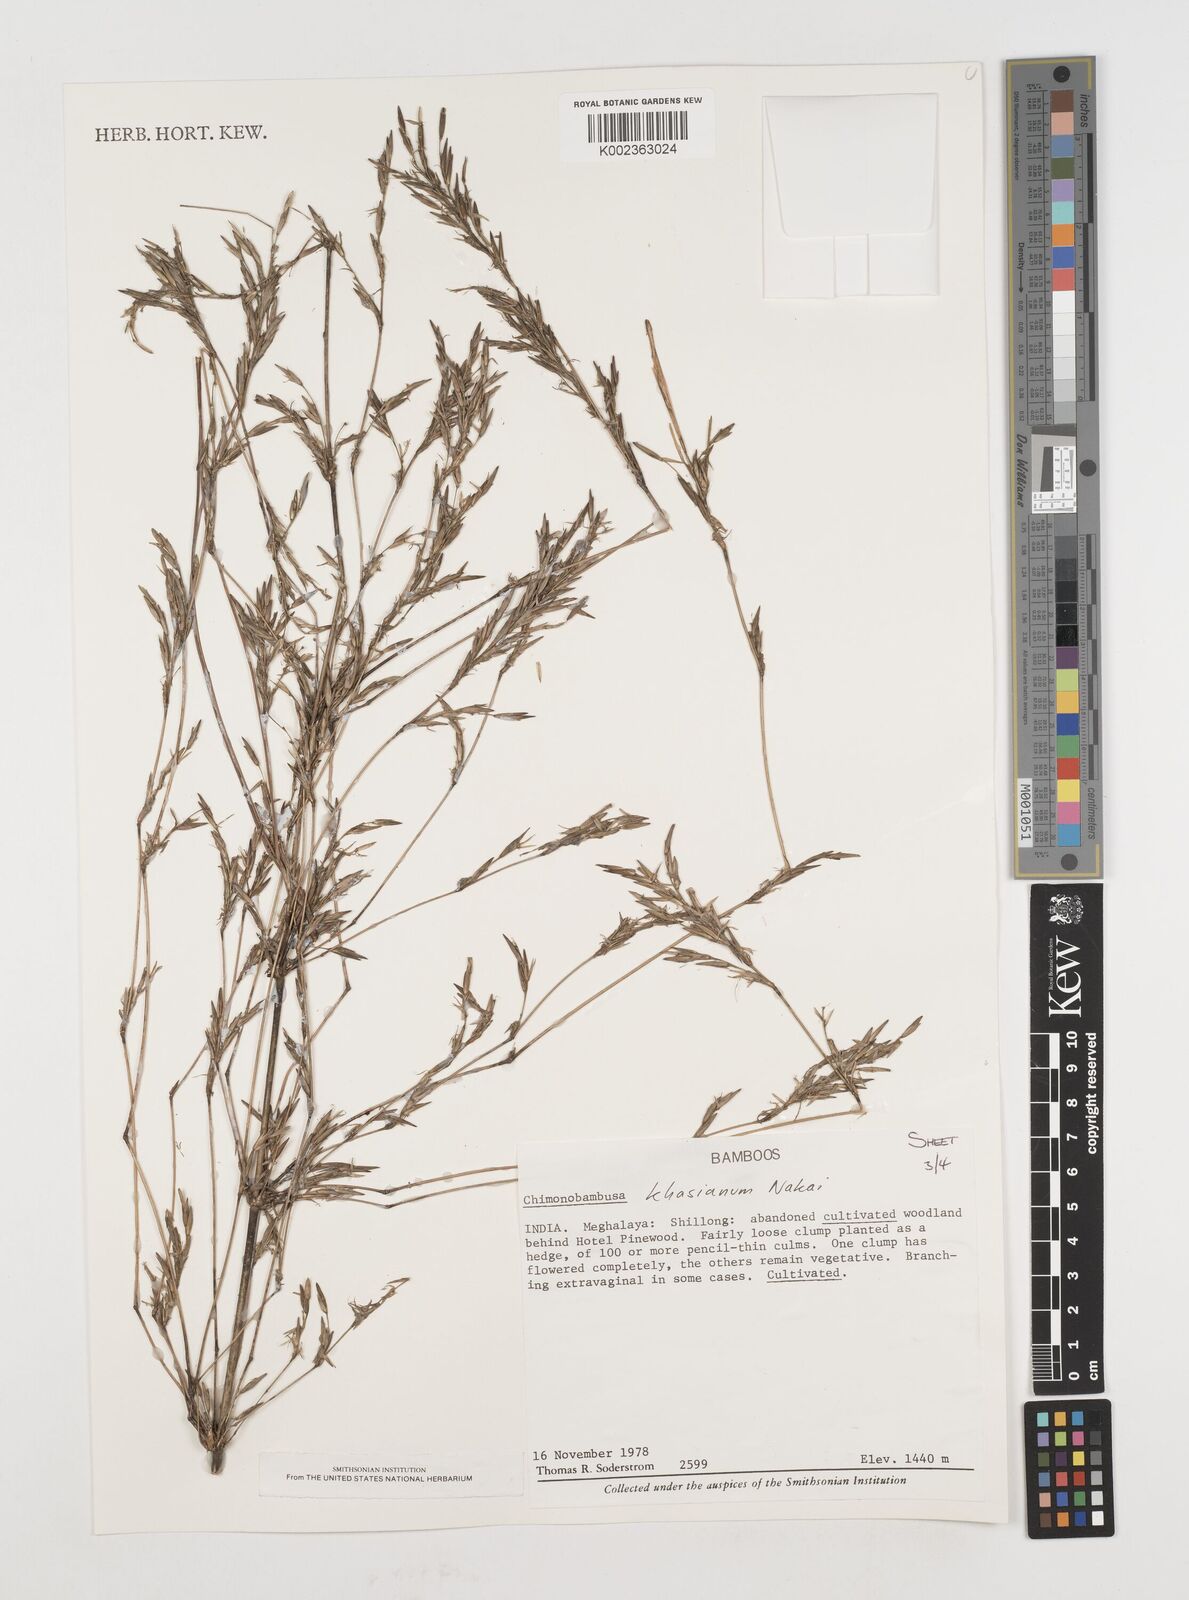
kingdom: Plantae
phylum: Tracheophyta
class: Liliopsida
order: Poales
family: Poaceae
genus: Drepanostachyum
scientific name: Drepanostachyum khasianum
